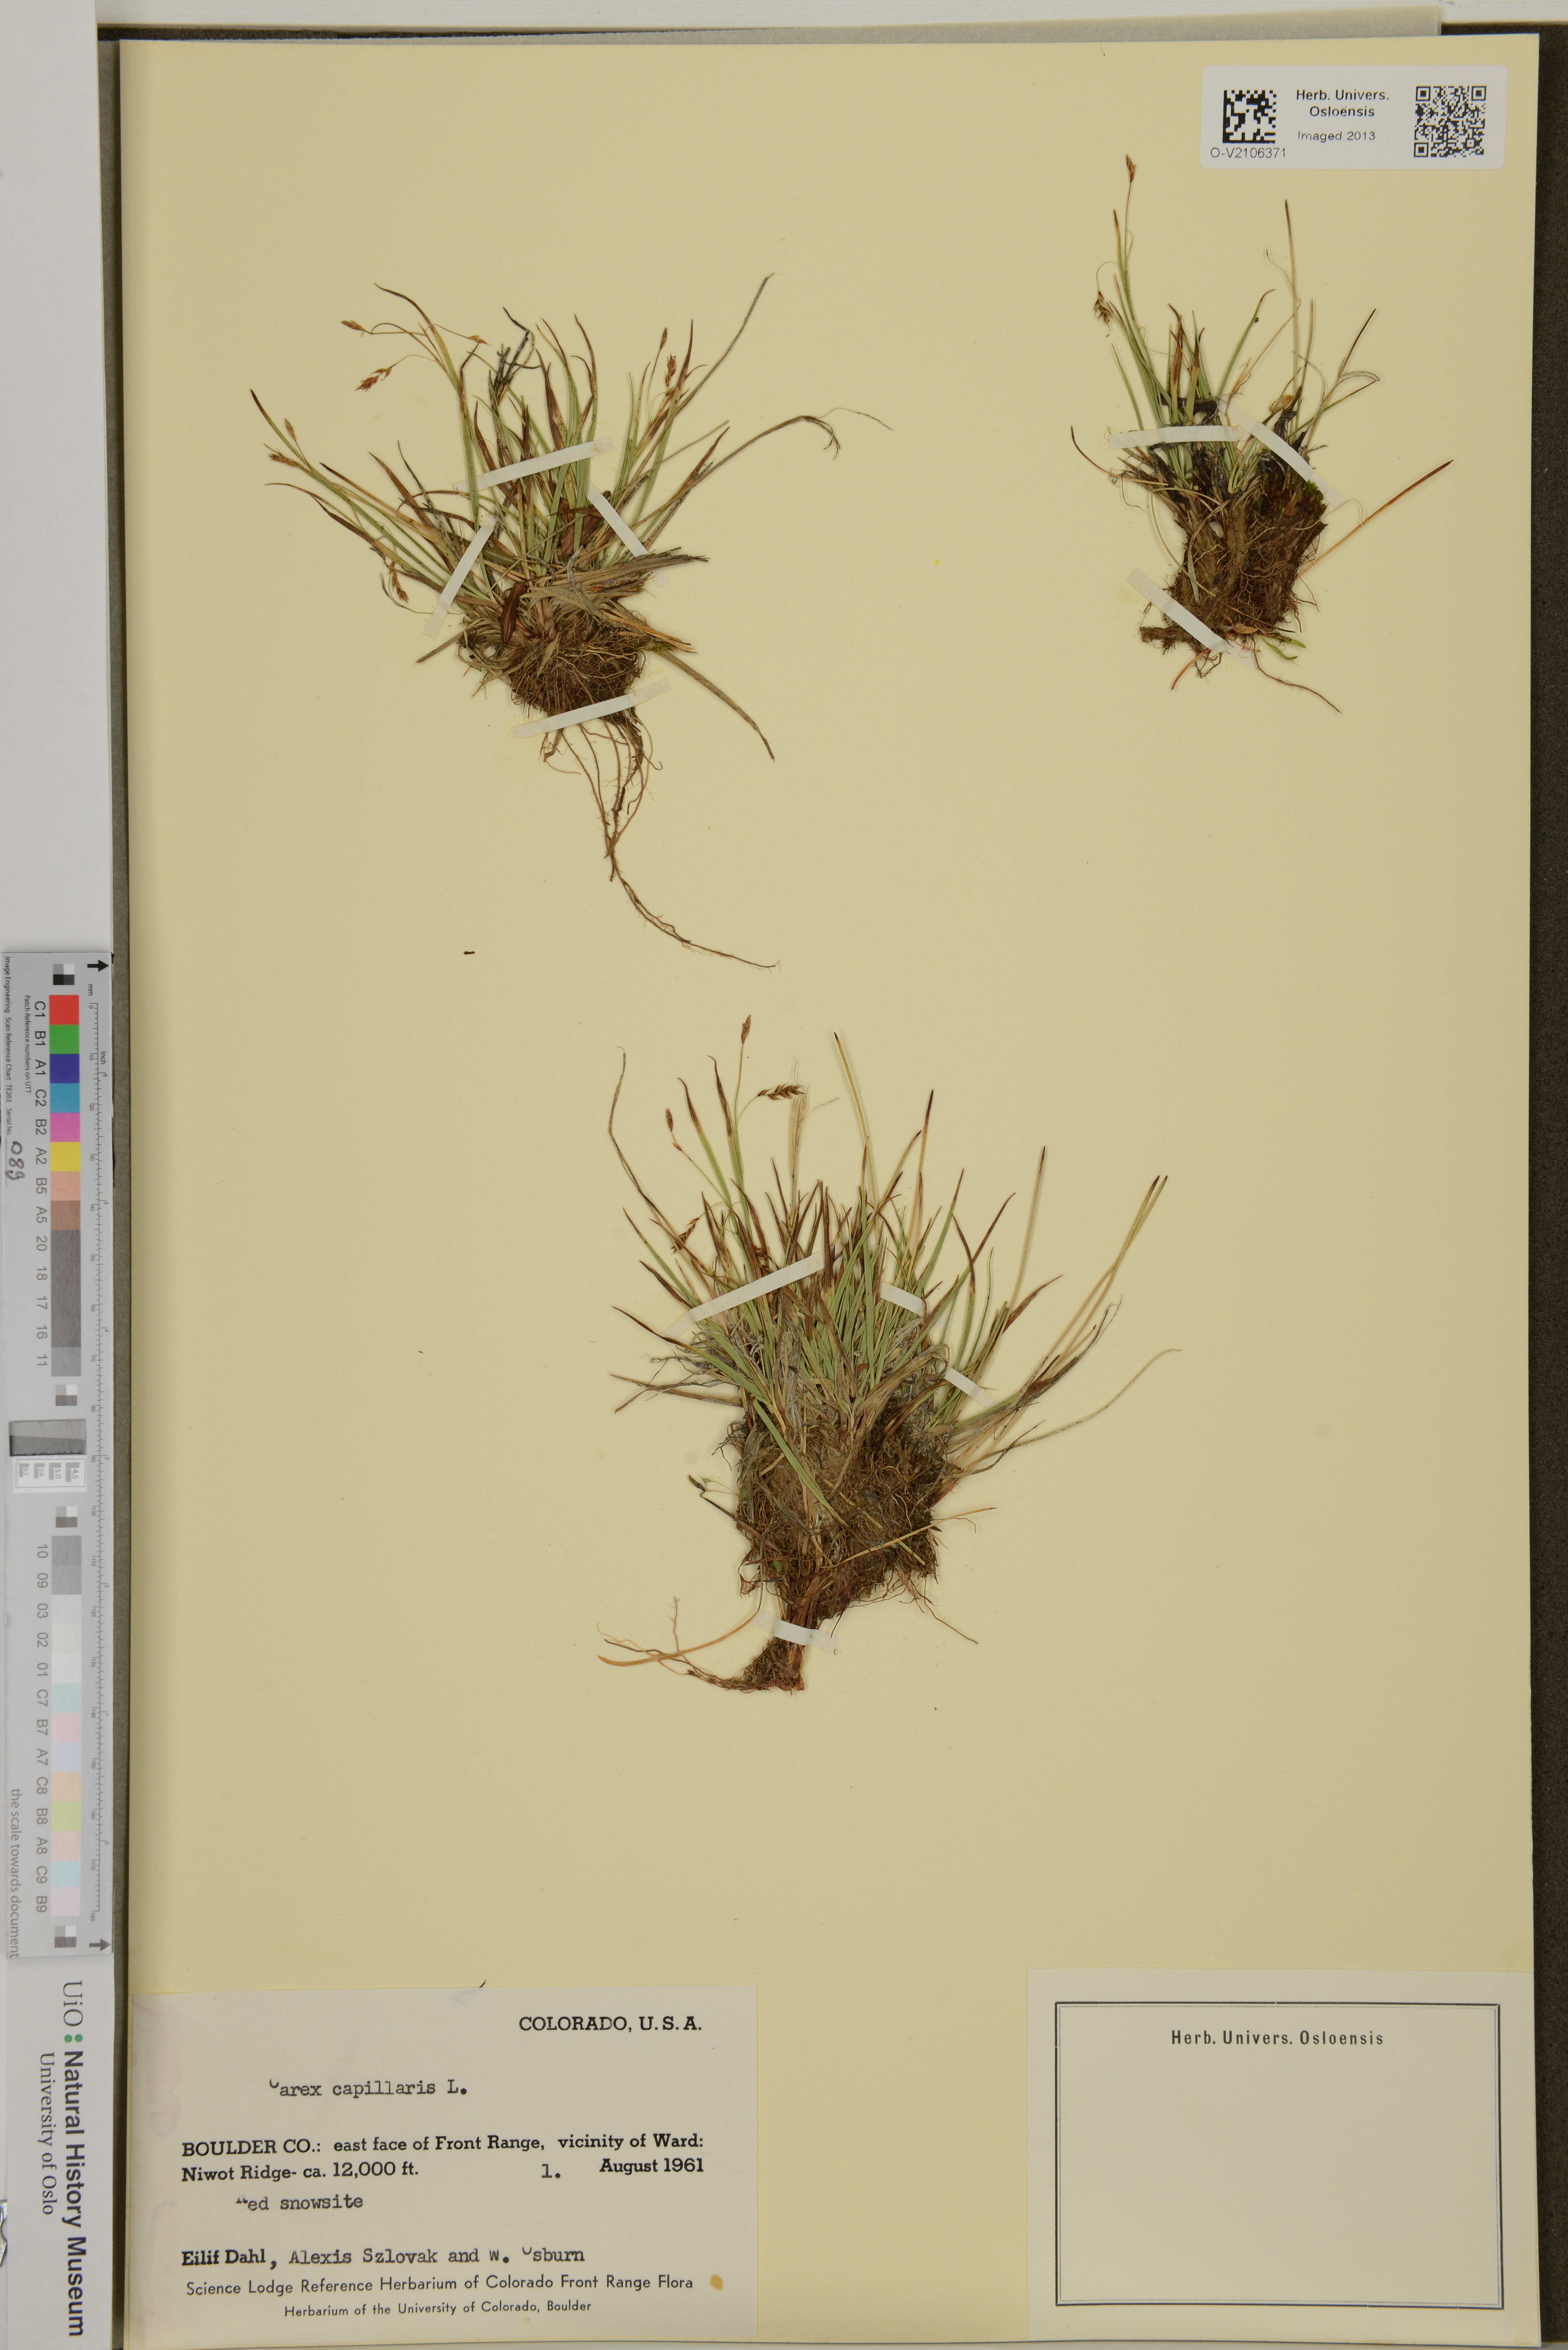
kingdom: Plantae
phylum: Tracheophyta
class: Liliopsida
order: Poales
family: Cyperaceae
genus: Carex
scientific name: Carex capillaris
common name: Hair sedge
